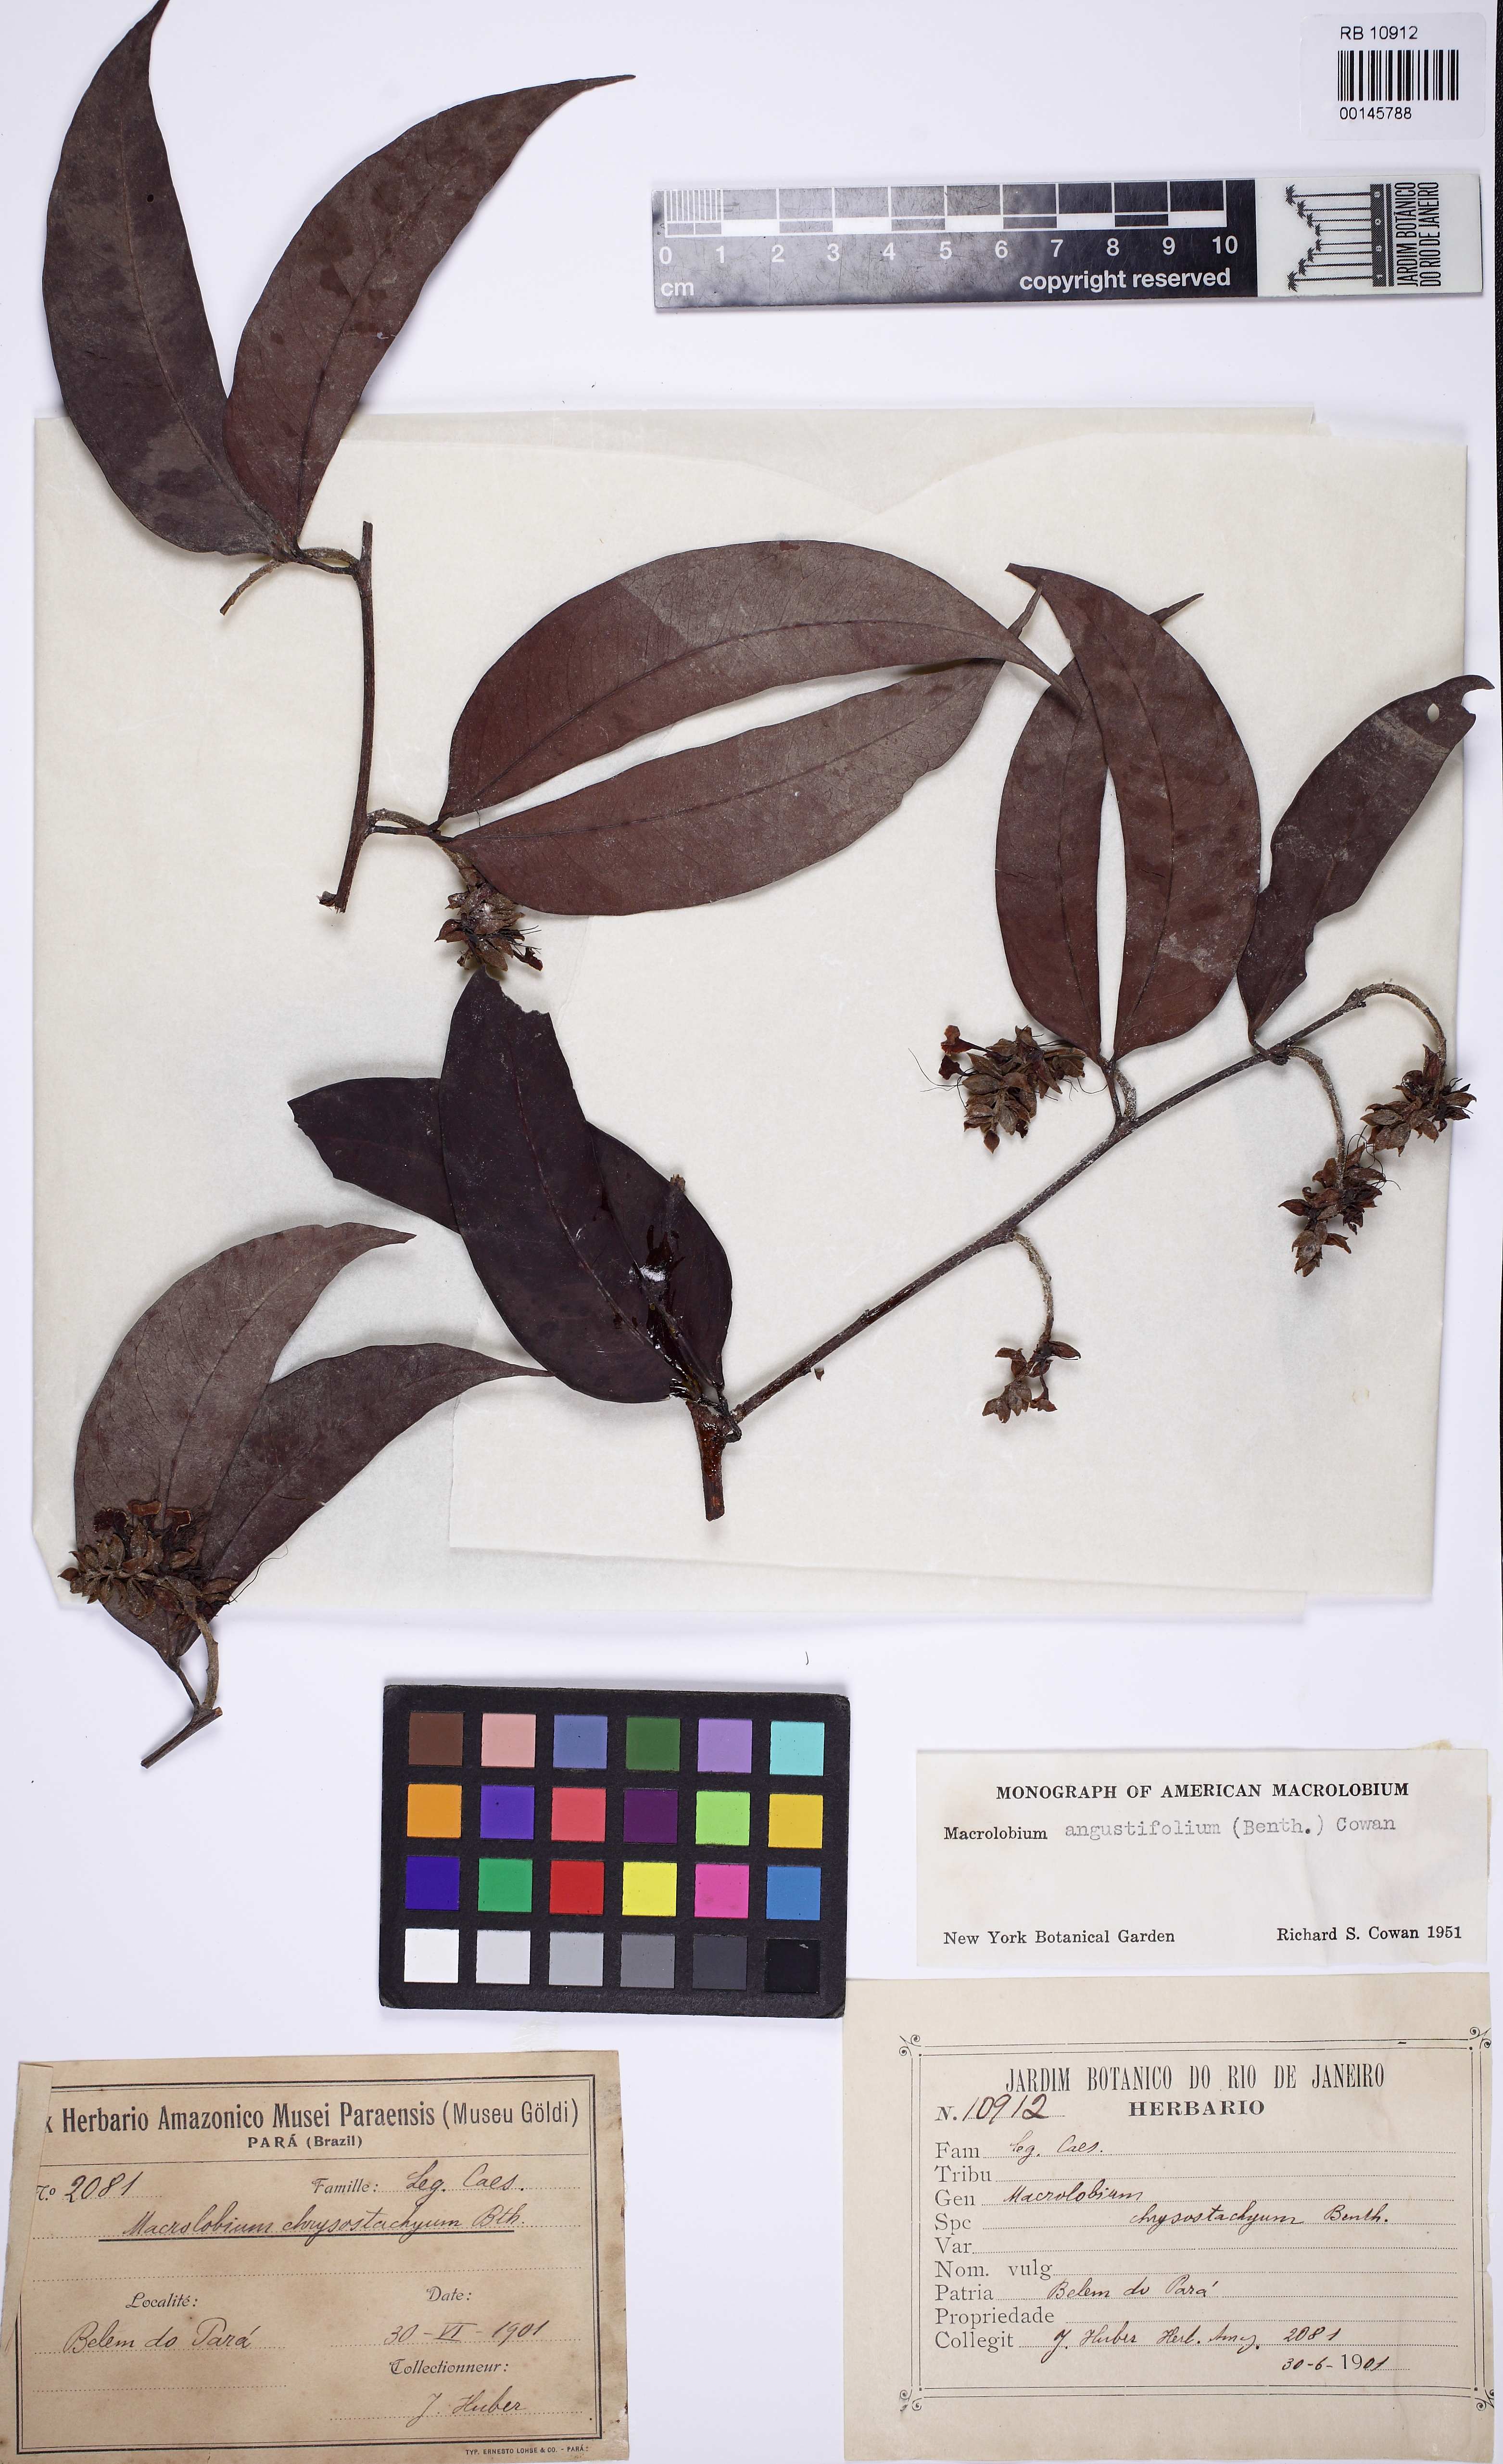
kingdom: Plantae
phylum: Tracheophyta
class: Magnoliopsida
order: Fabales
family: Fabaceae
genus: Macrolobium
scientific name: Macrolobium angustifolium
